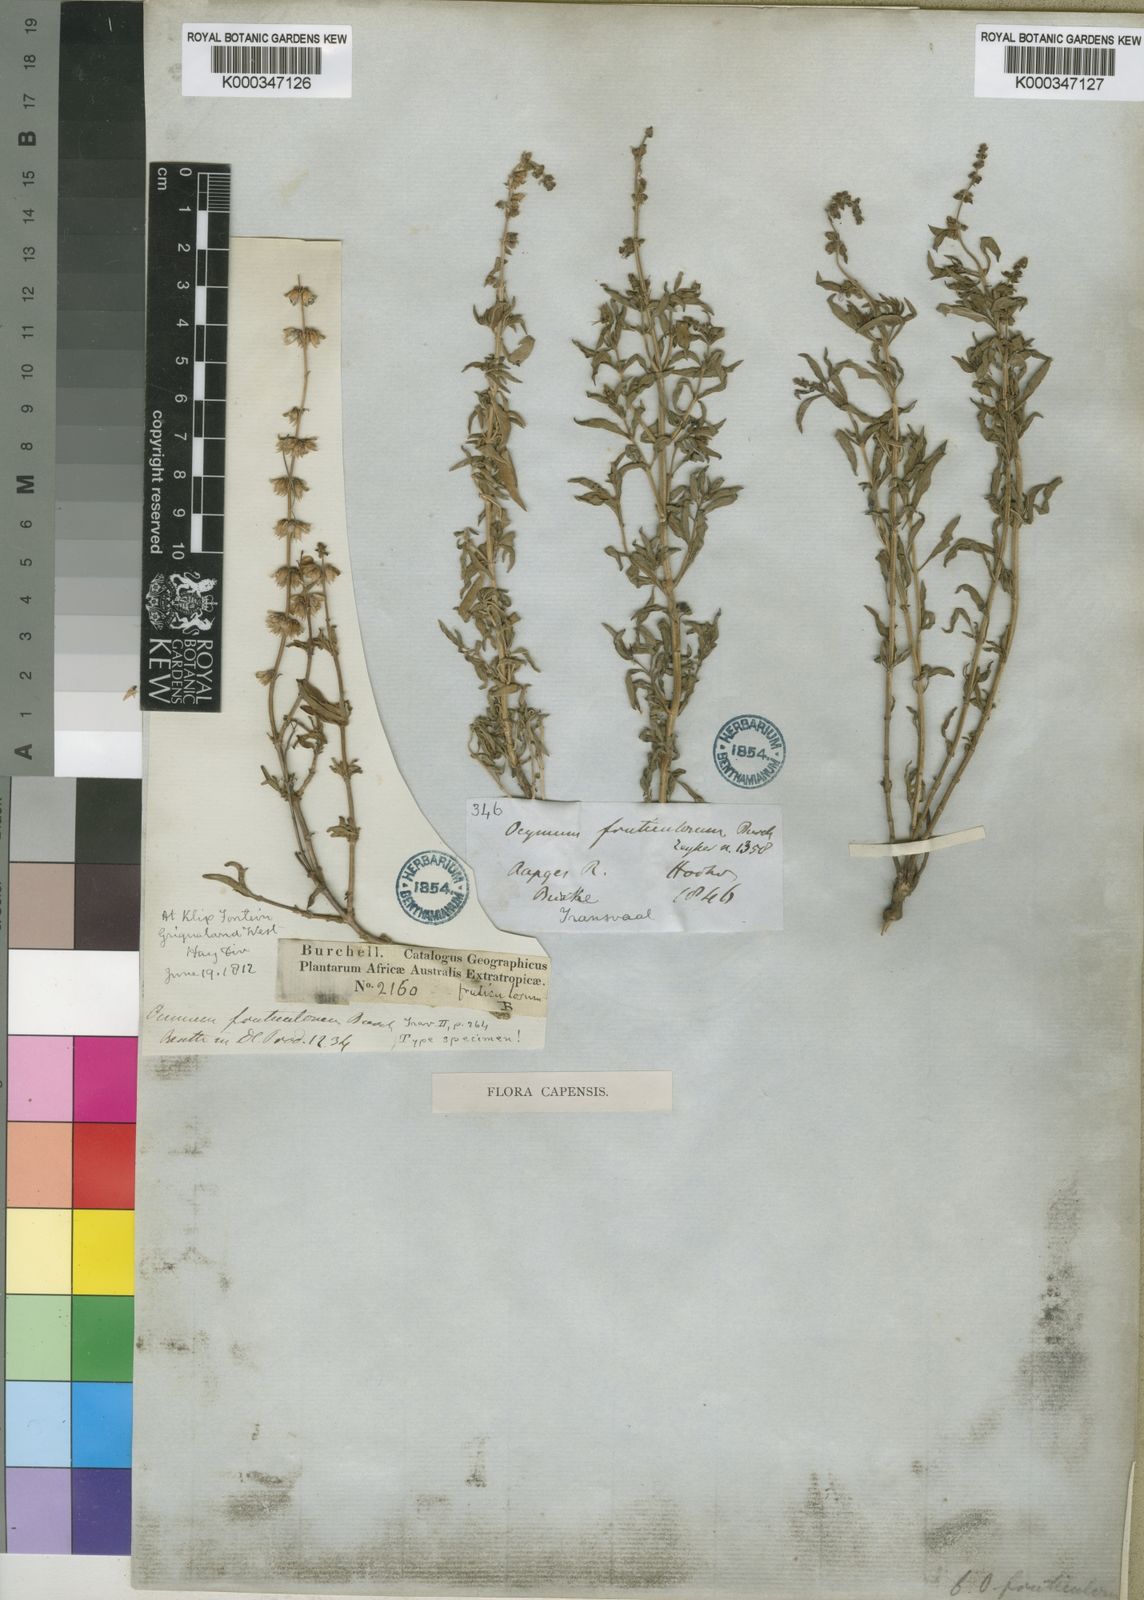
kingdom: Plantae
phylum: Tracheophyta
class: Magnoliopsida
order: Lamiales
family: Lamiaceae
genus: Ocimum
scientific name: Ocimum americanum
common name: American basil
